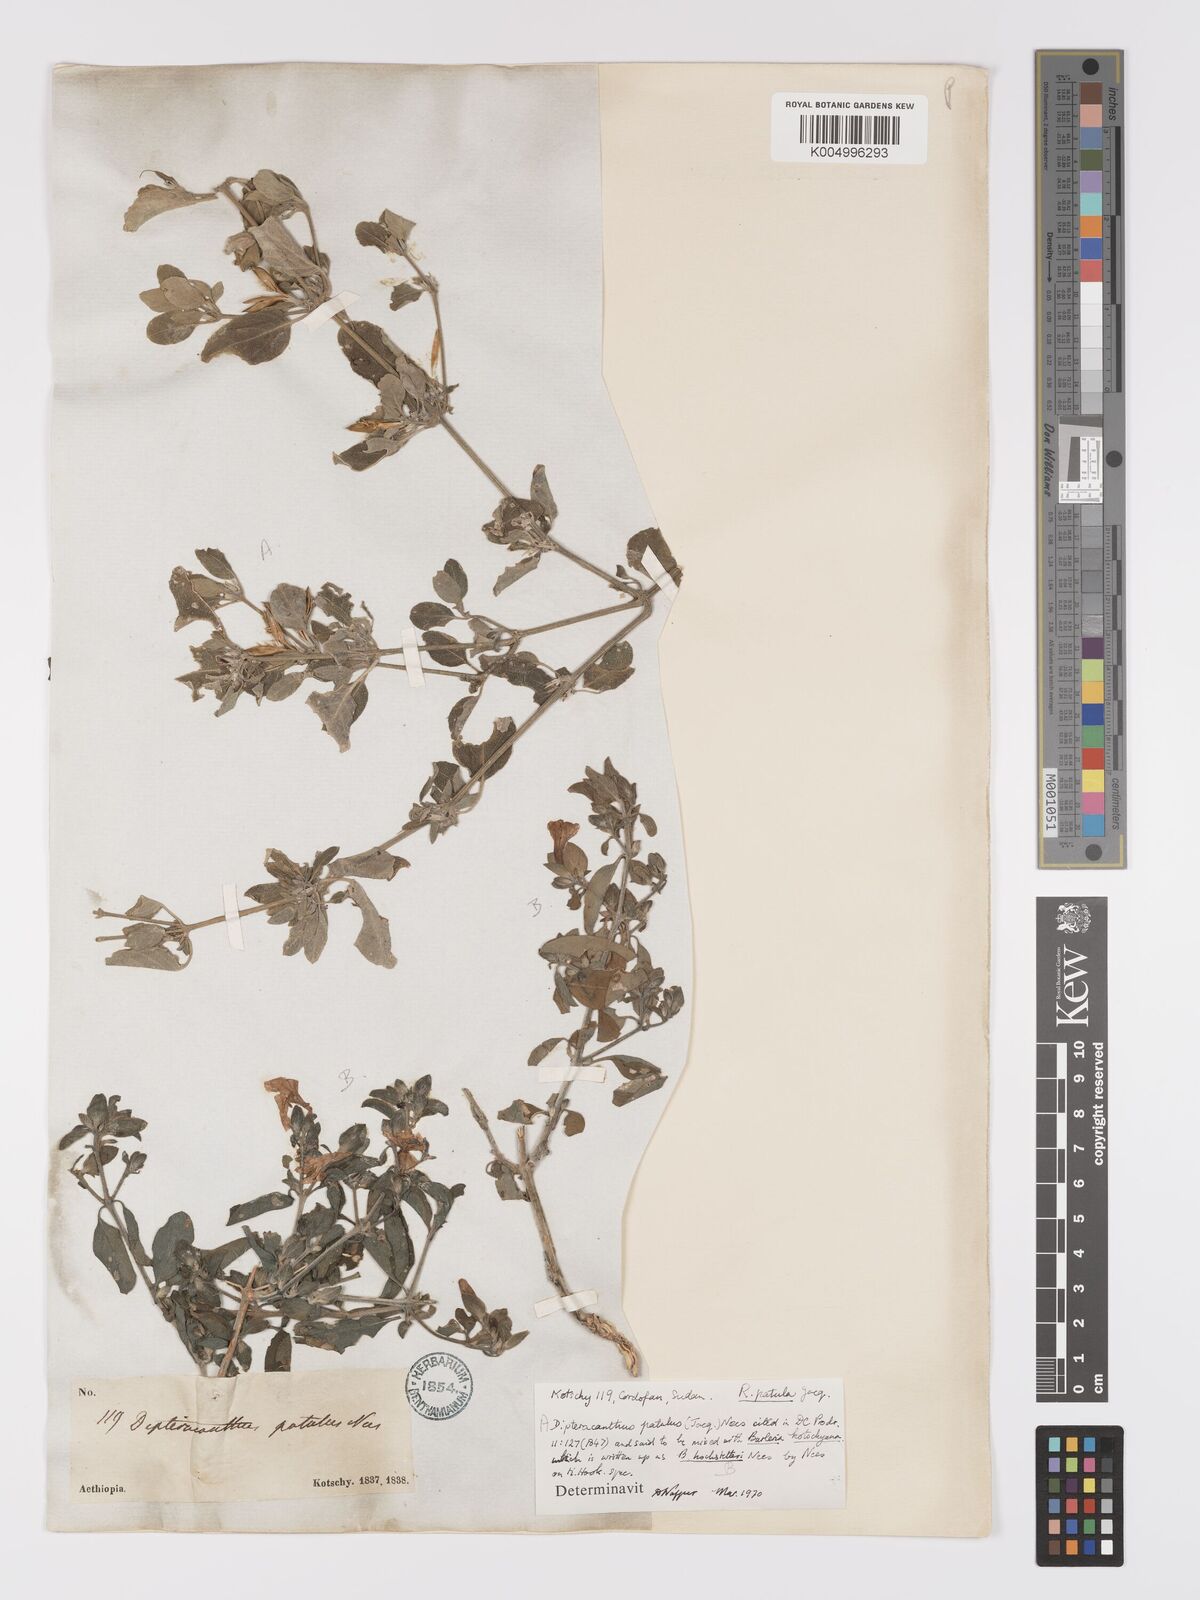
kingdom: Plantae
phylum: Tracheophyta
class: Magnoliopsida
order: Lamiales
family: Acanthaceae
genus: Ruellia
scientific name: Ruellia patula
